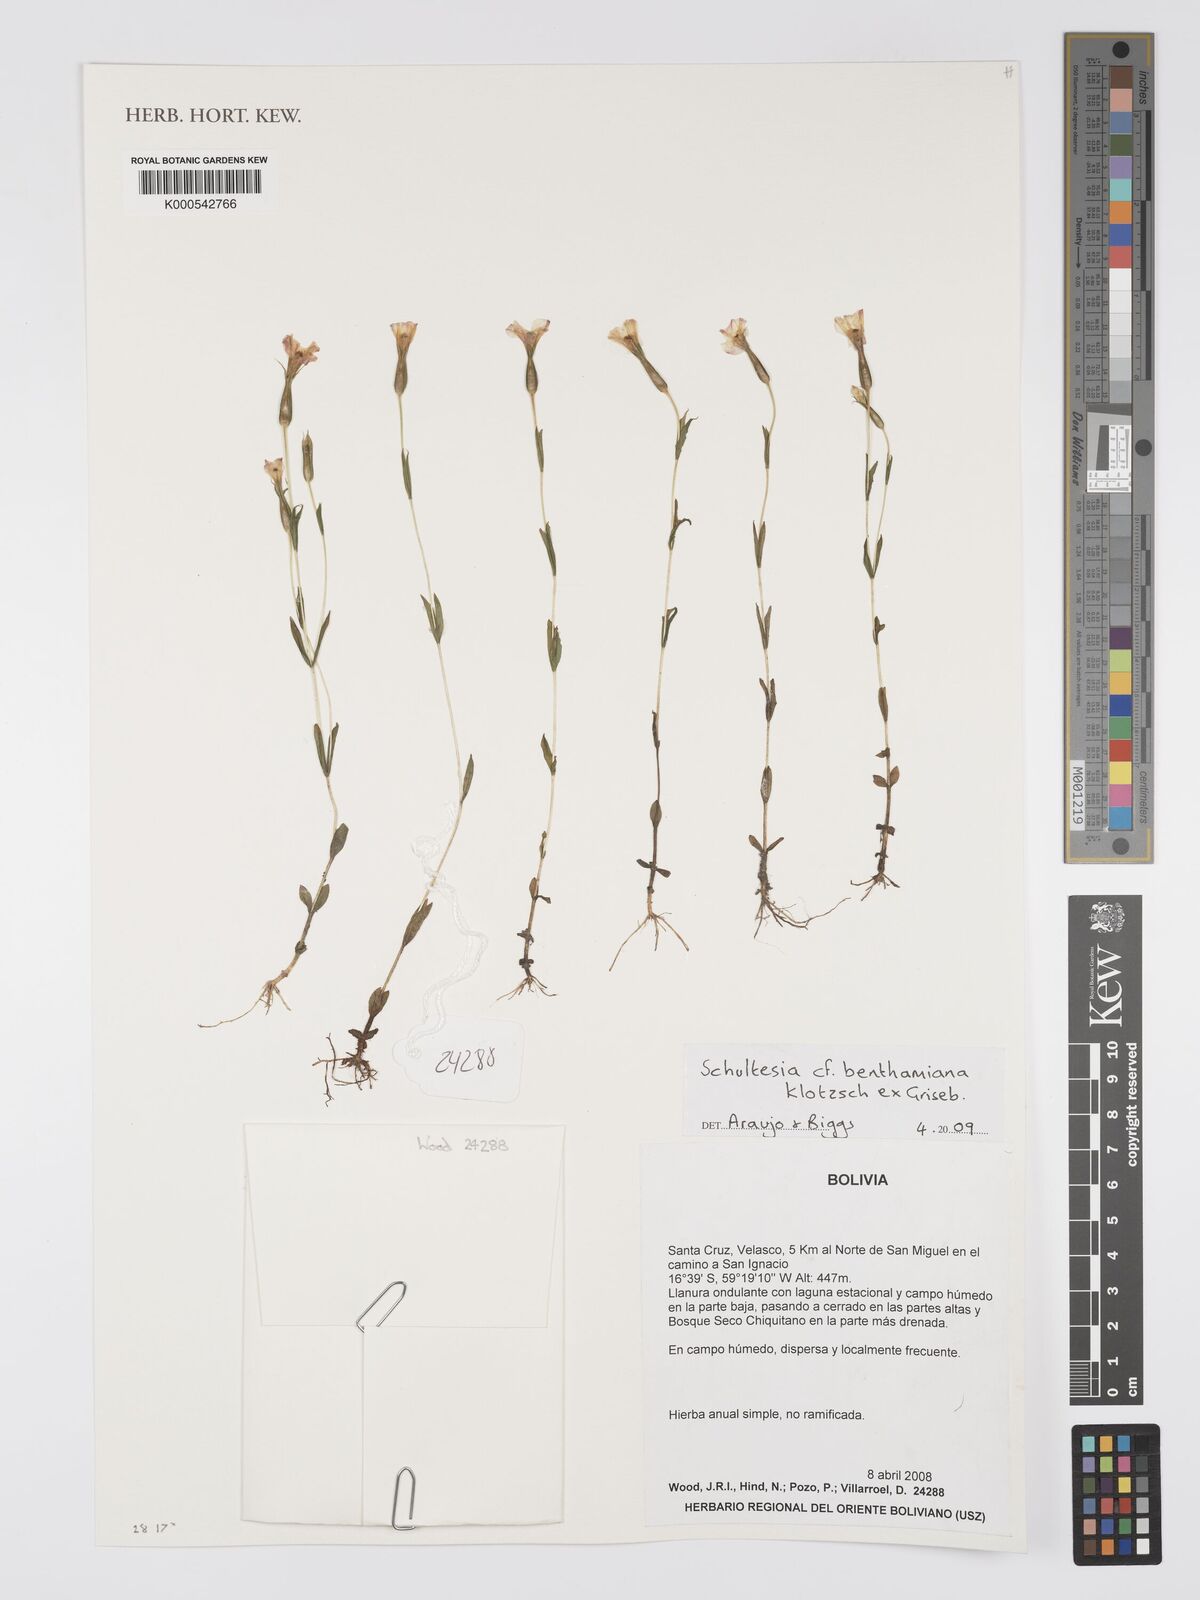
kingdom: Plantae
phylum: Tracheophyta
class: Magnoliopsida
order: Gentianales
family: Gentianaceae
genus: Schultesia
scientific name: Schultesia benthamiana
